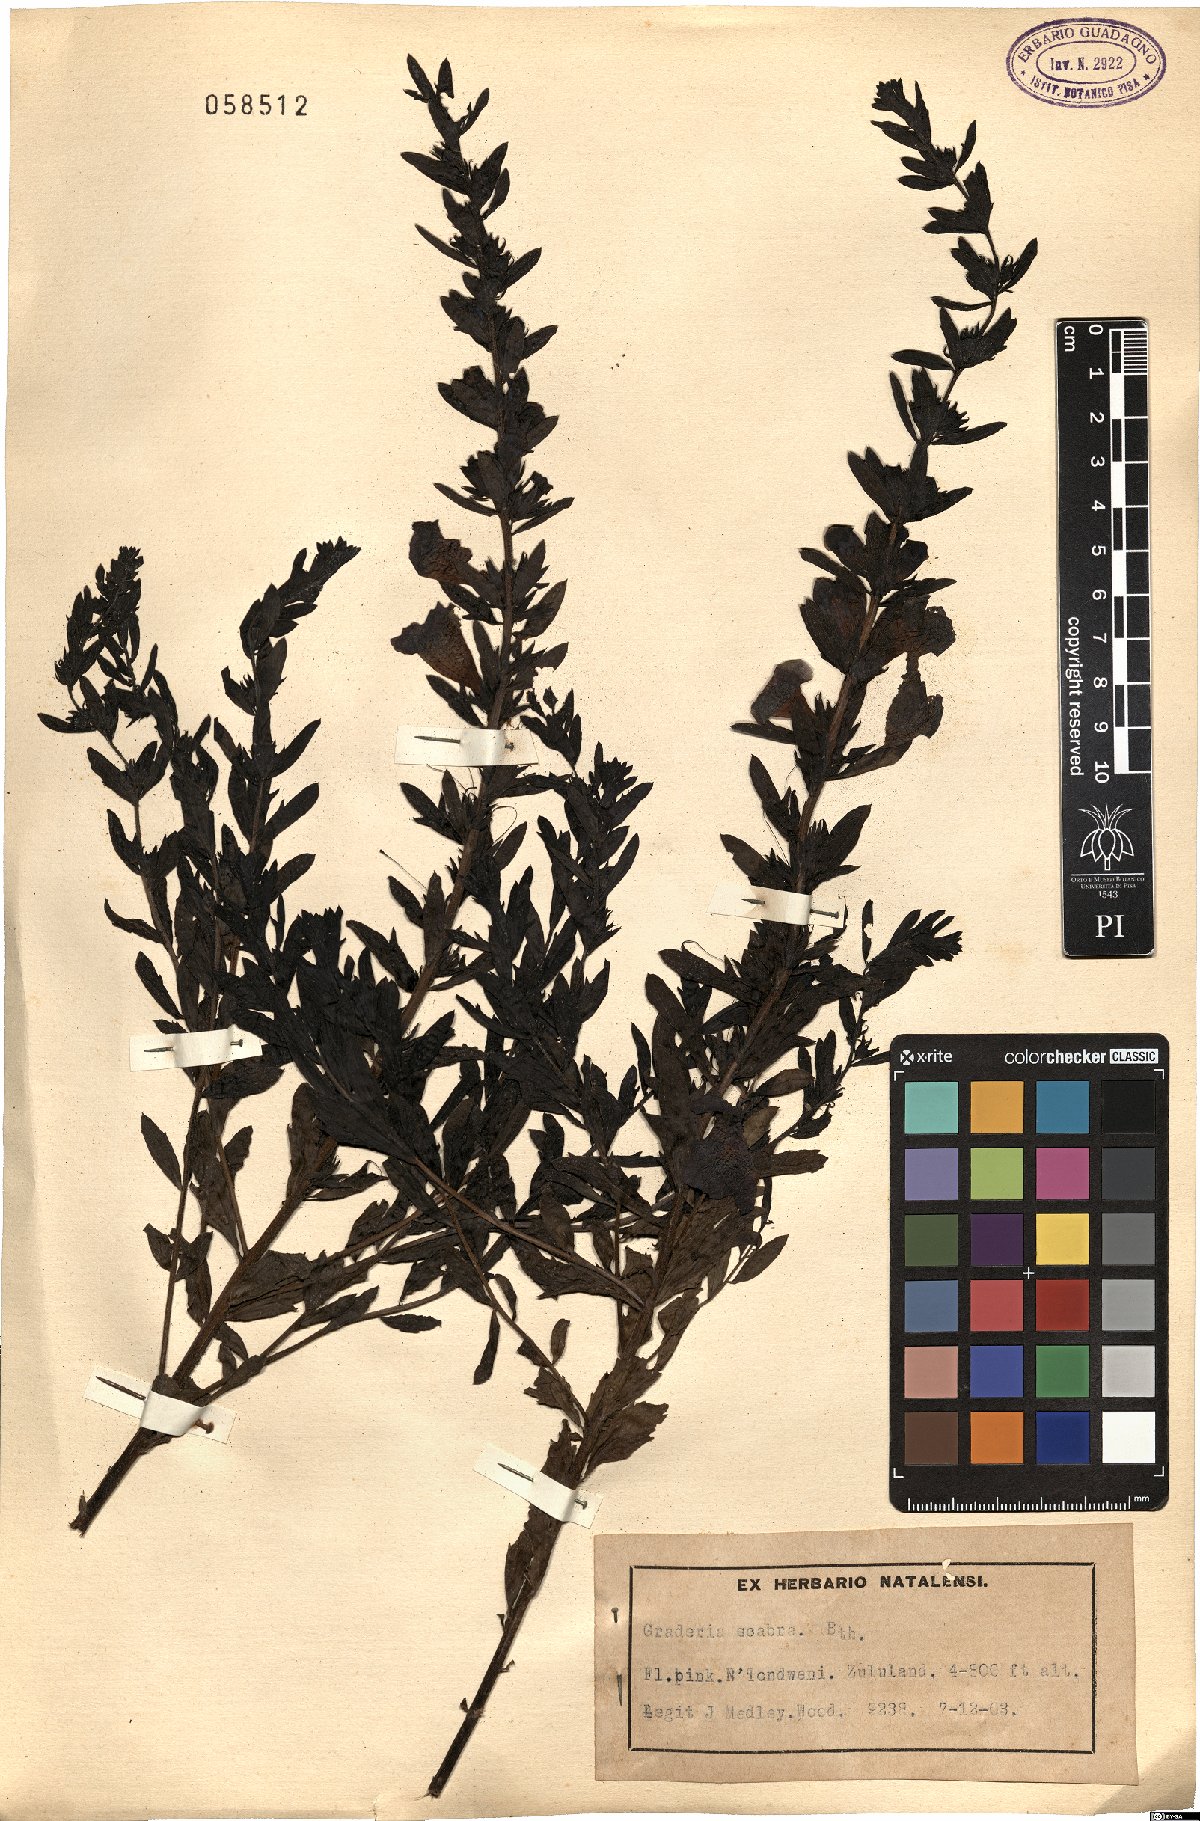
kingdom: Plantae
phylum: Tracheophyta
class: Magnoliopsida
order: Lamiales
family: Orobanchaceae
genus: Graderia
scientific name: Graderia scabra
